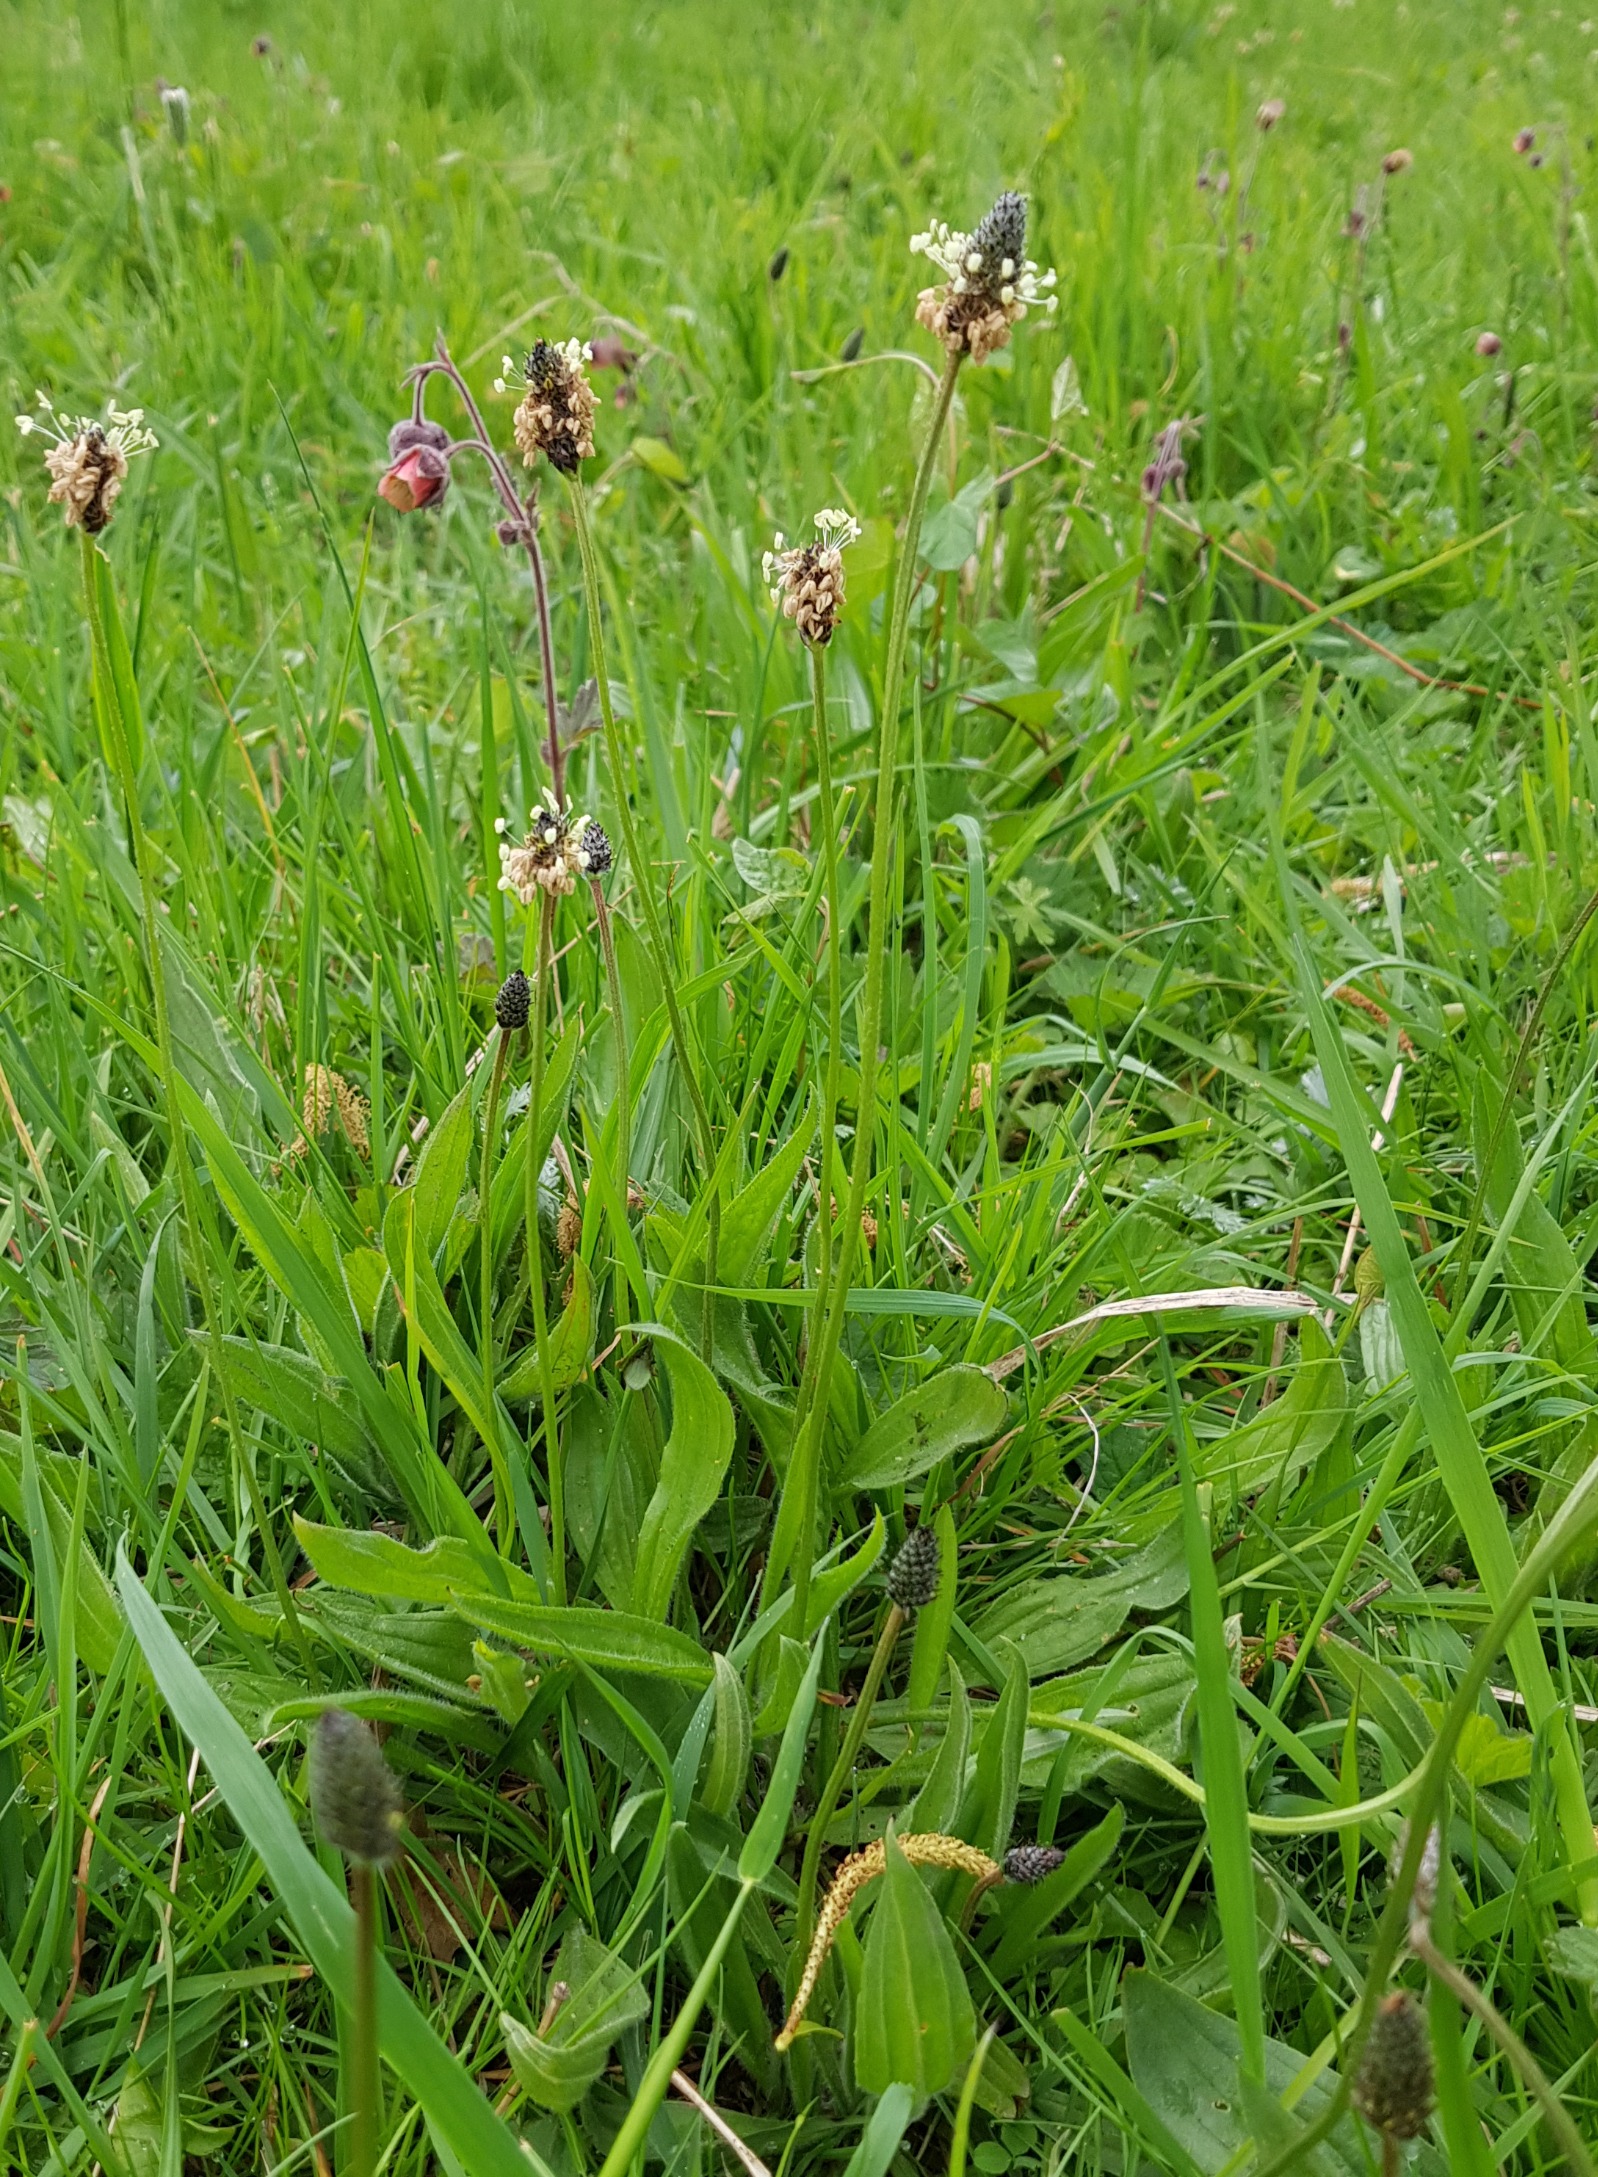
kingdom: Plantae
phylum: Tracheophyta
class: Magnoliopsida
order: Lamiales
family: Plantaginaceae
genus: Plantago
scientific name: Plantago lanceolata
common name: Lancet-vejbred
